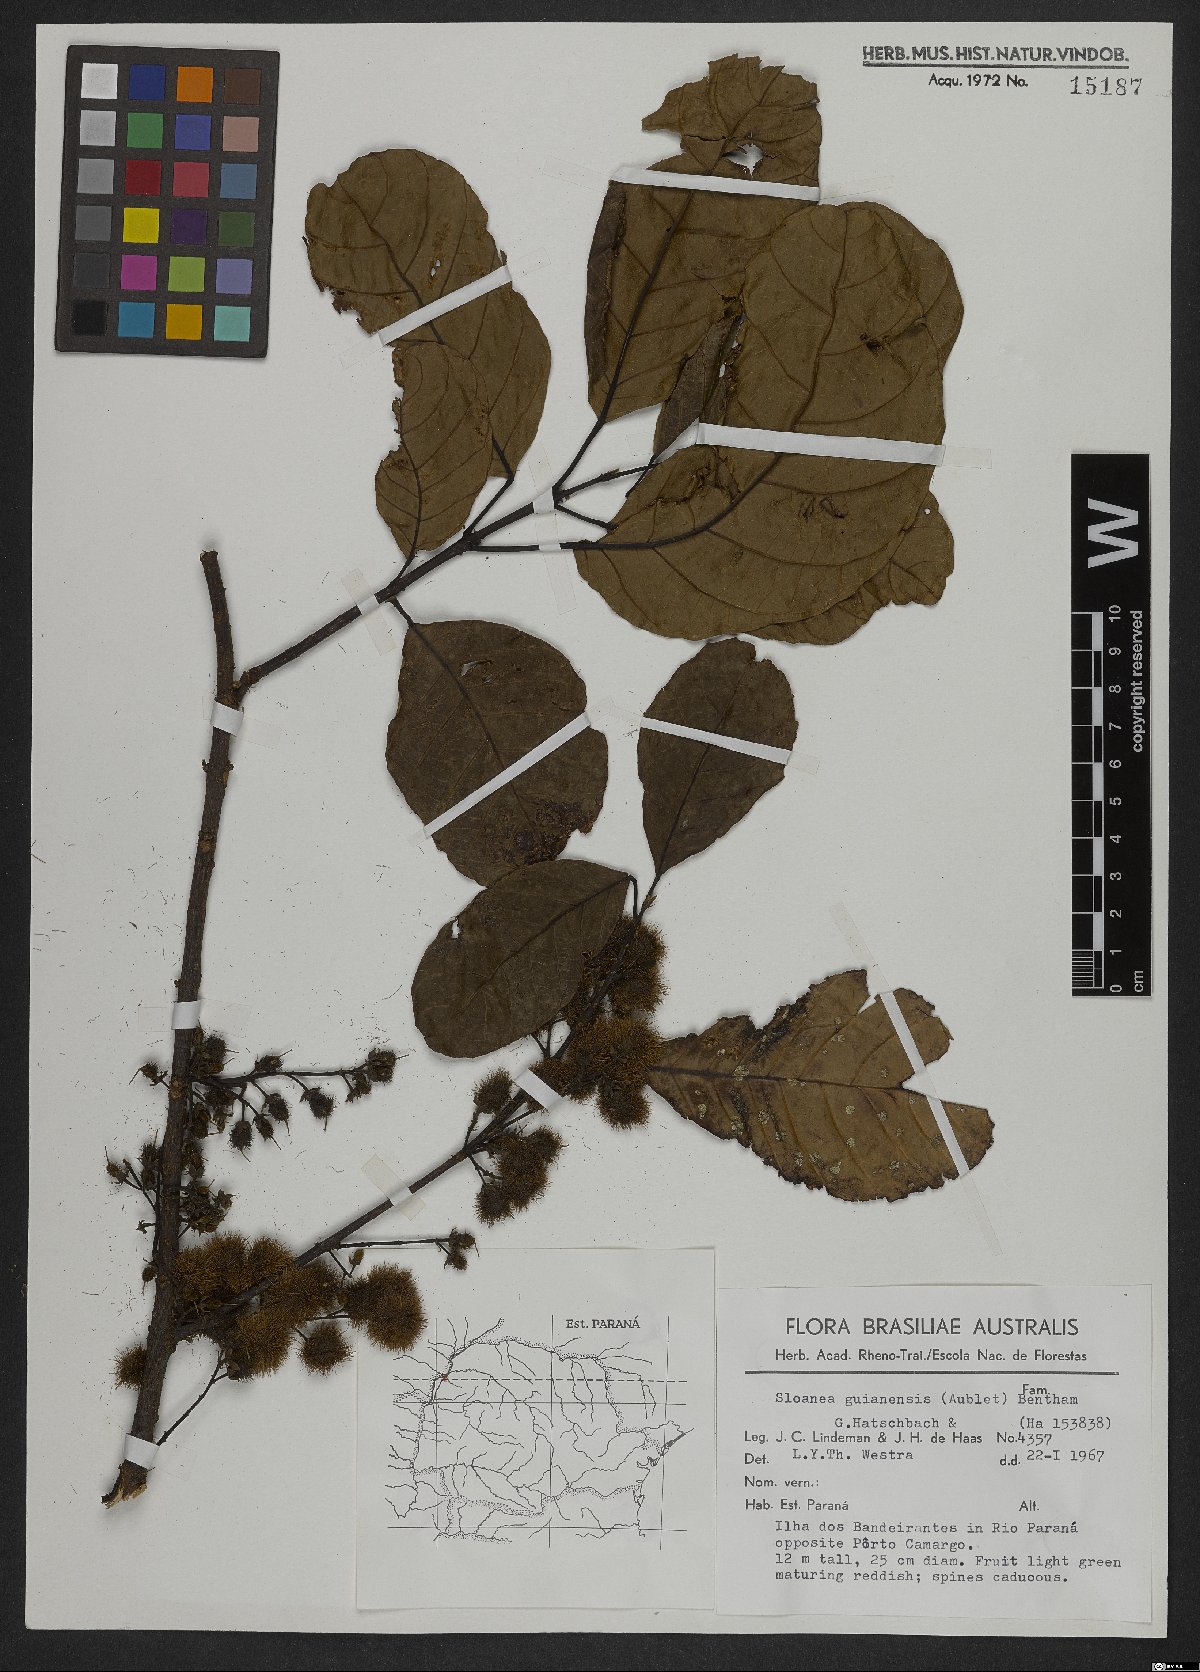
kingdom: Plantae
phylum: Tracheophyta
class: Magnoliopsida
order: Oxalidales
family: Elaeocarpaceae
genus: Sloanea
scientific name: Sloanea guianensis
